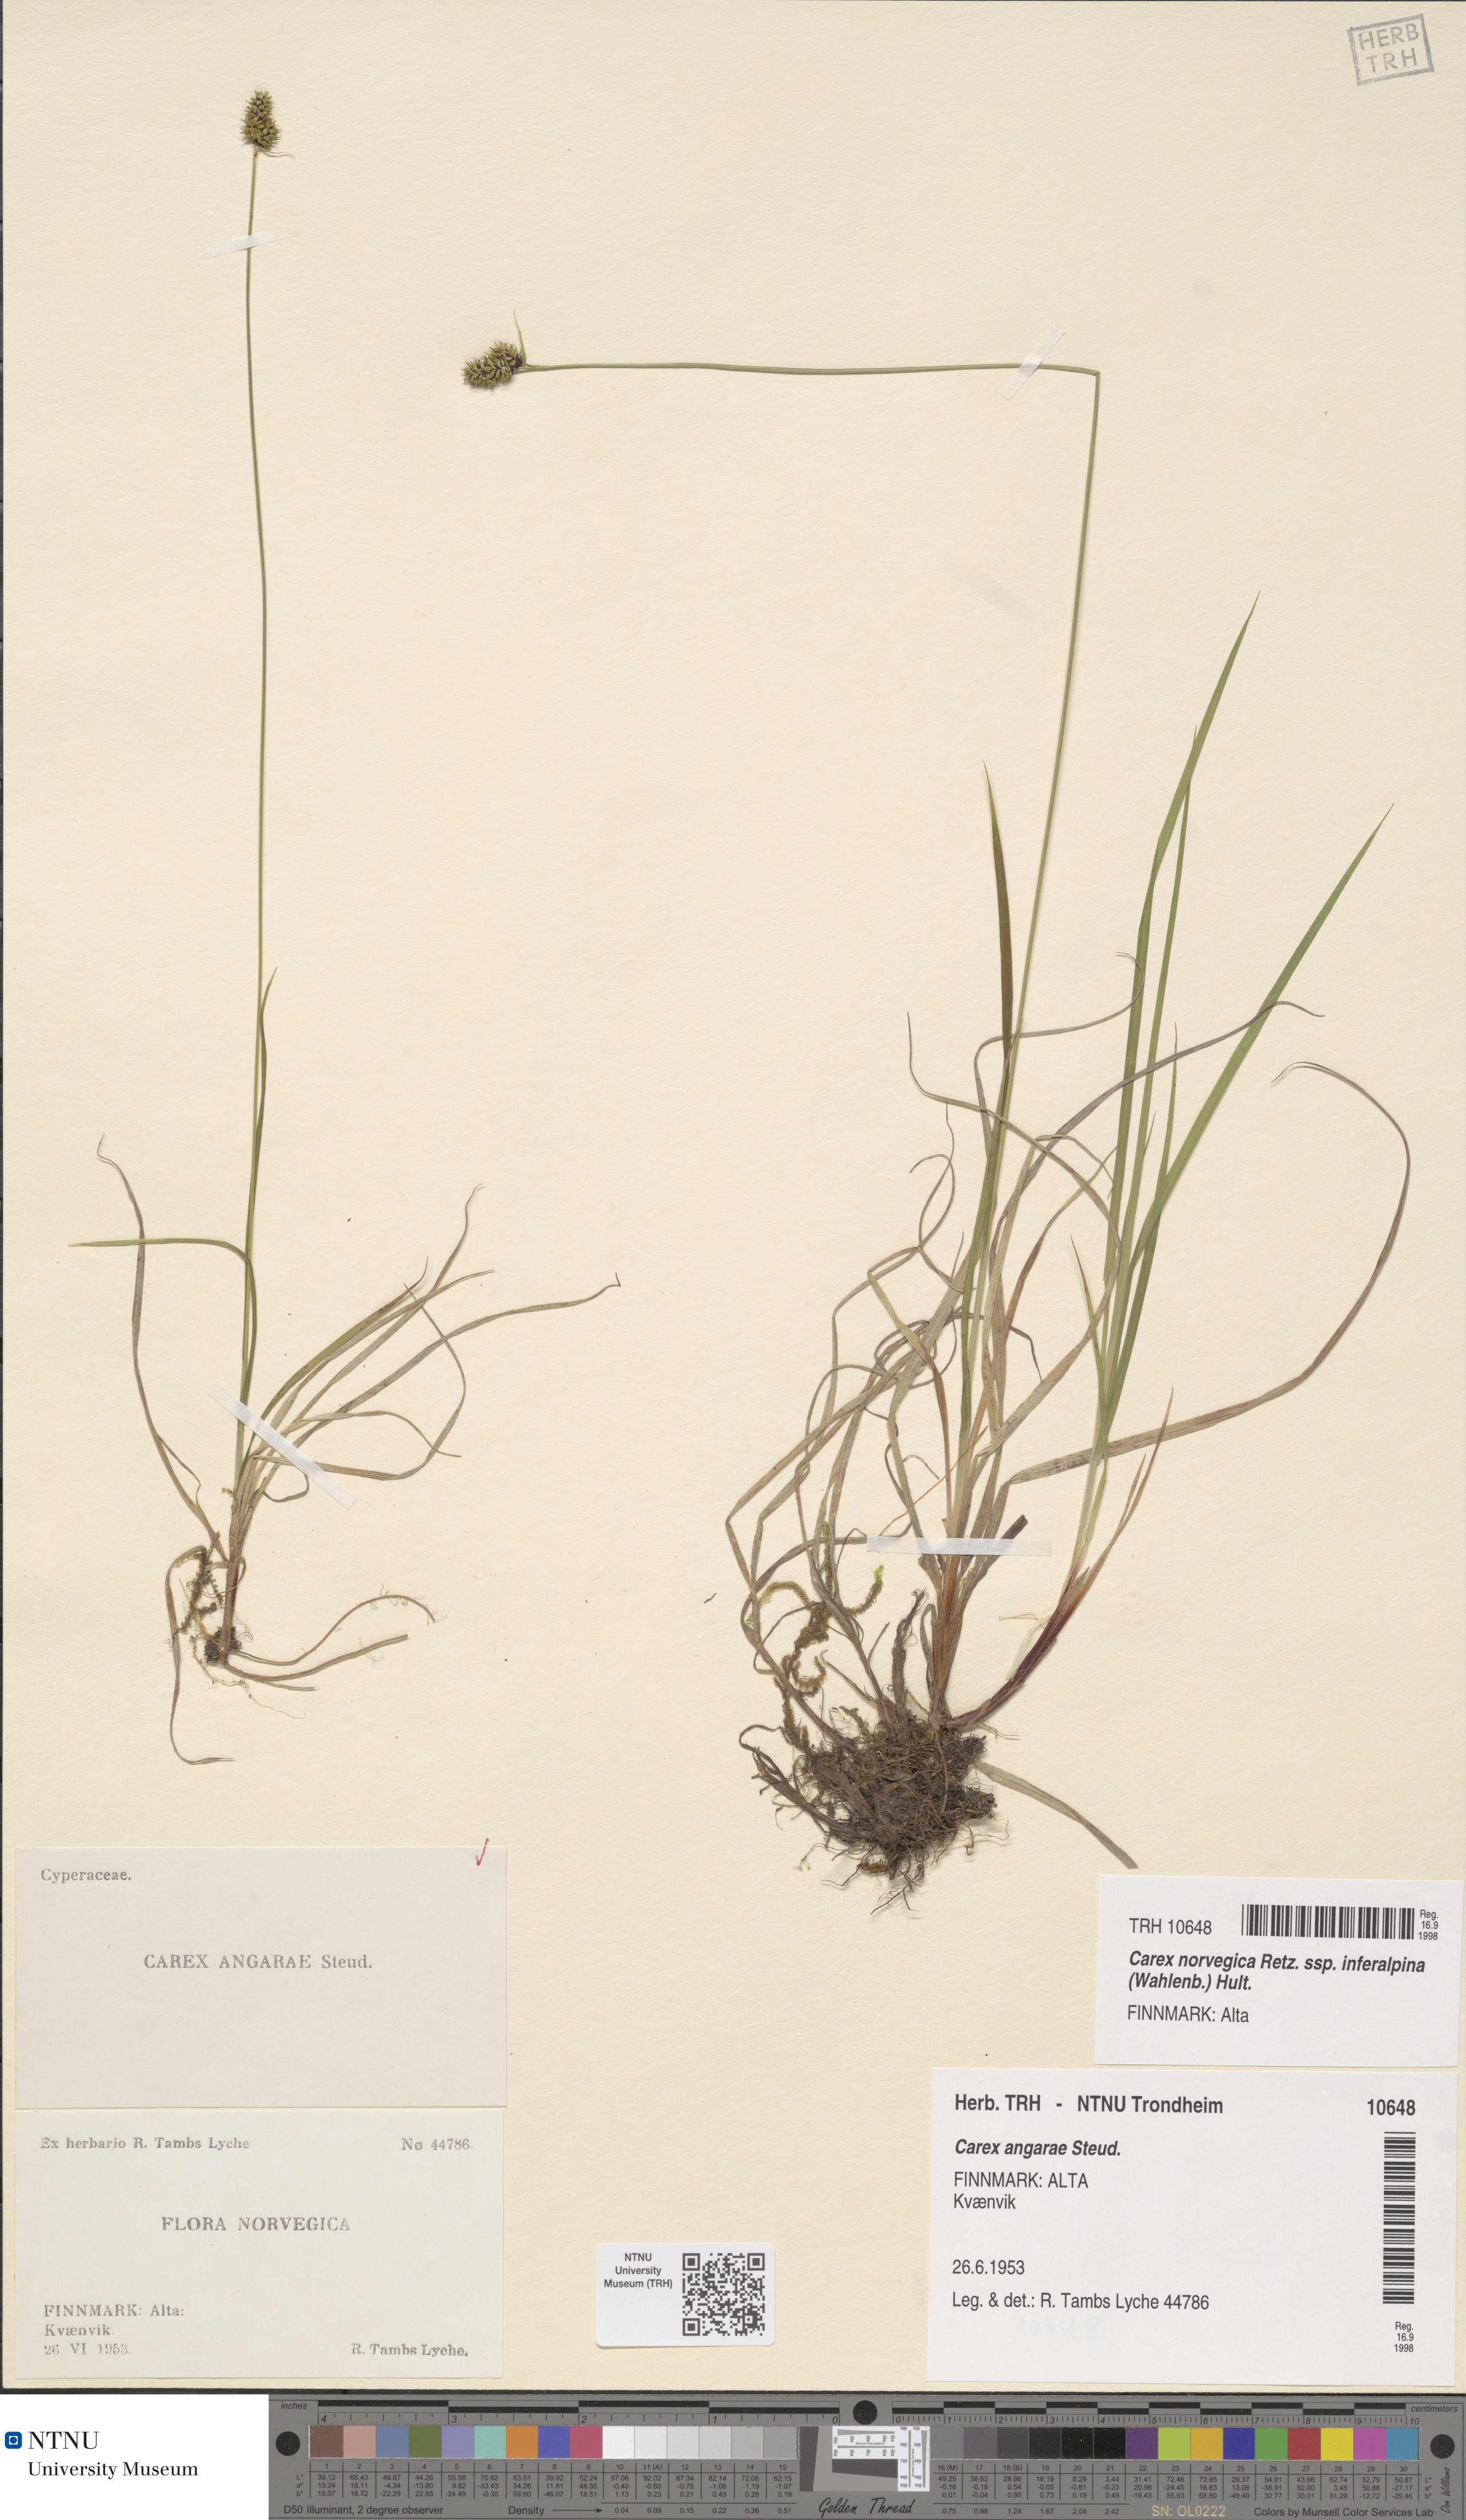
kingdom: Plantae
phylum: Tracheophyta
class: Liliopsida
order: Poales
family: Cyperaceae
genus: Carex
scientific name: Carex media
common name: Alpine sedge
